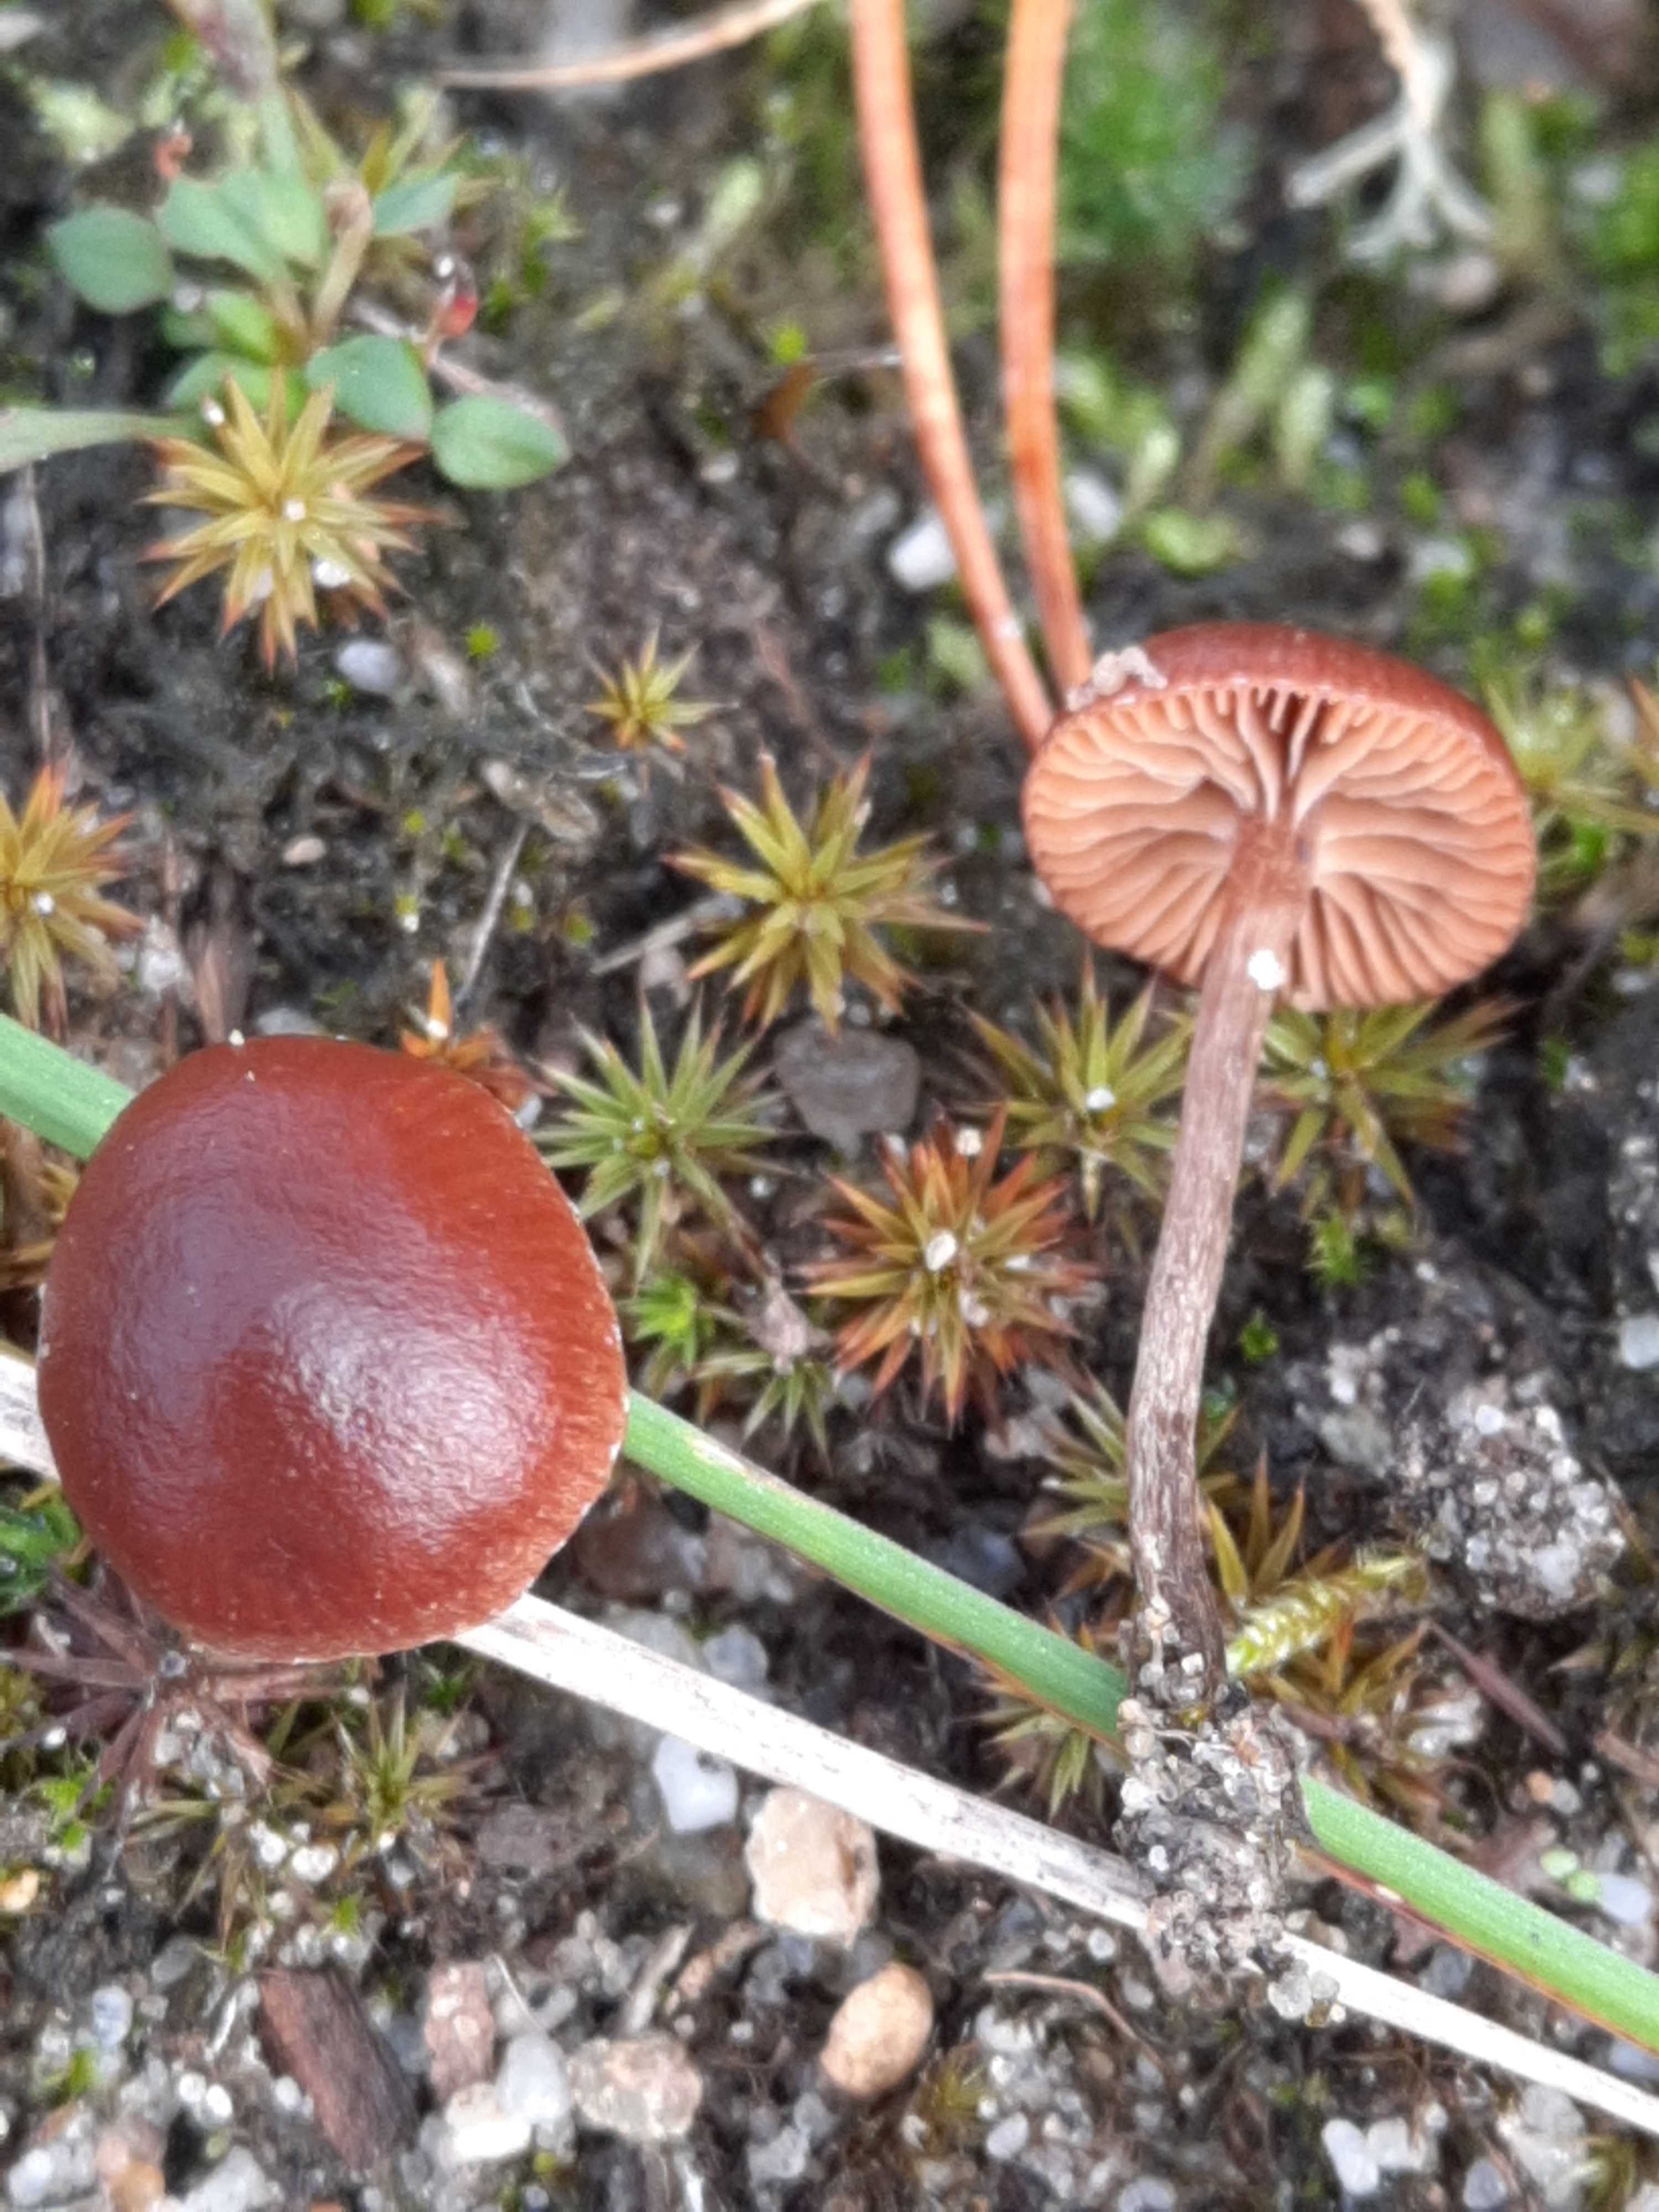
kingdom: Fungi
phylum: Basidiomycota
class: Agaricomycetes
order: Agaricales
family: Strophariaceae
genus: Deconica
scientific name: Deconica montana
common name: rødbrun stråhat
